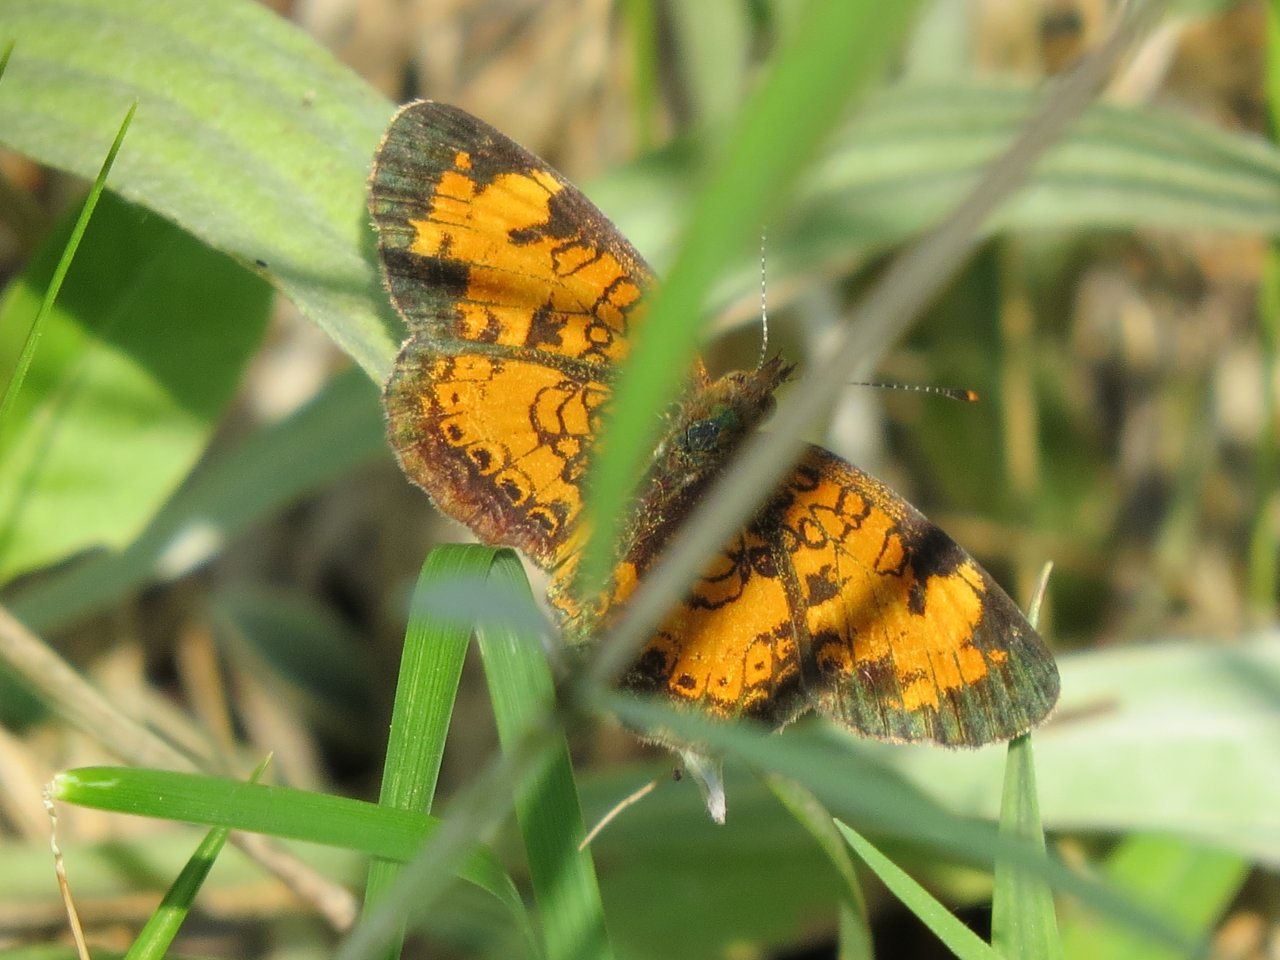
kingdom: Animalia
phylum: Arthropoda
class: Insecta
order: Lepidoptera
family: Nymphalidae
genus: Phyciodes
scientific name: Phyciodes tharos
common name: Northern Crescent
